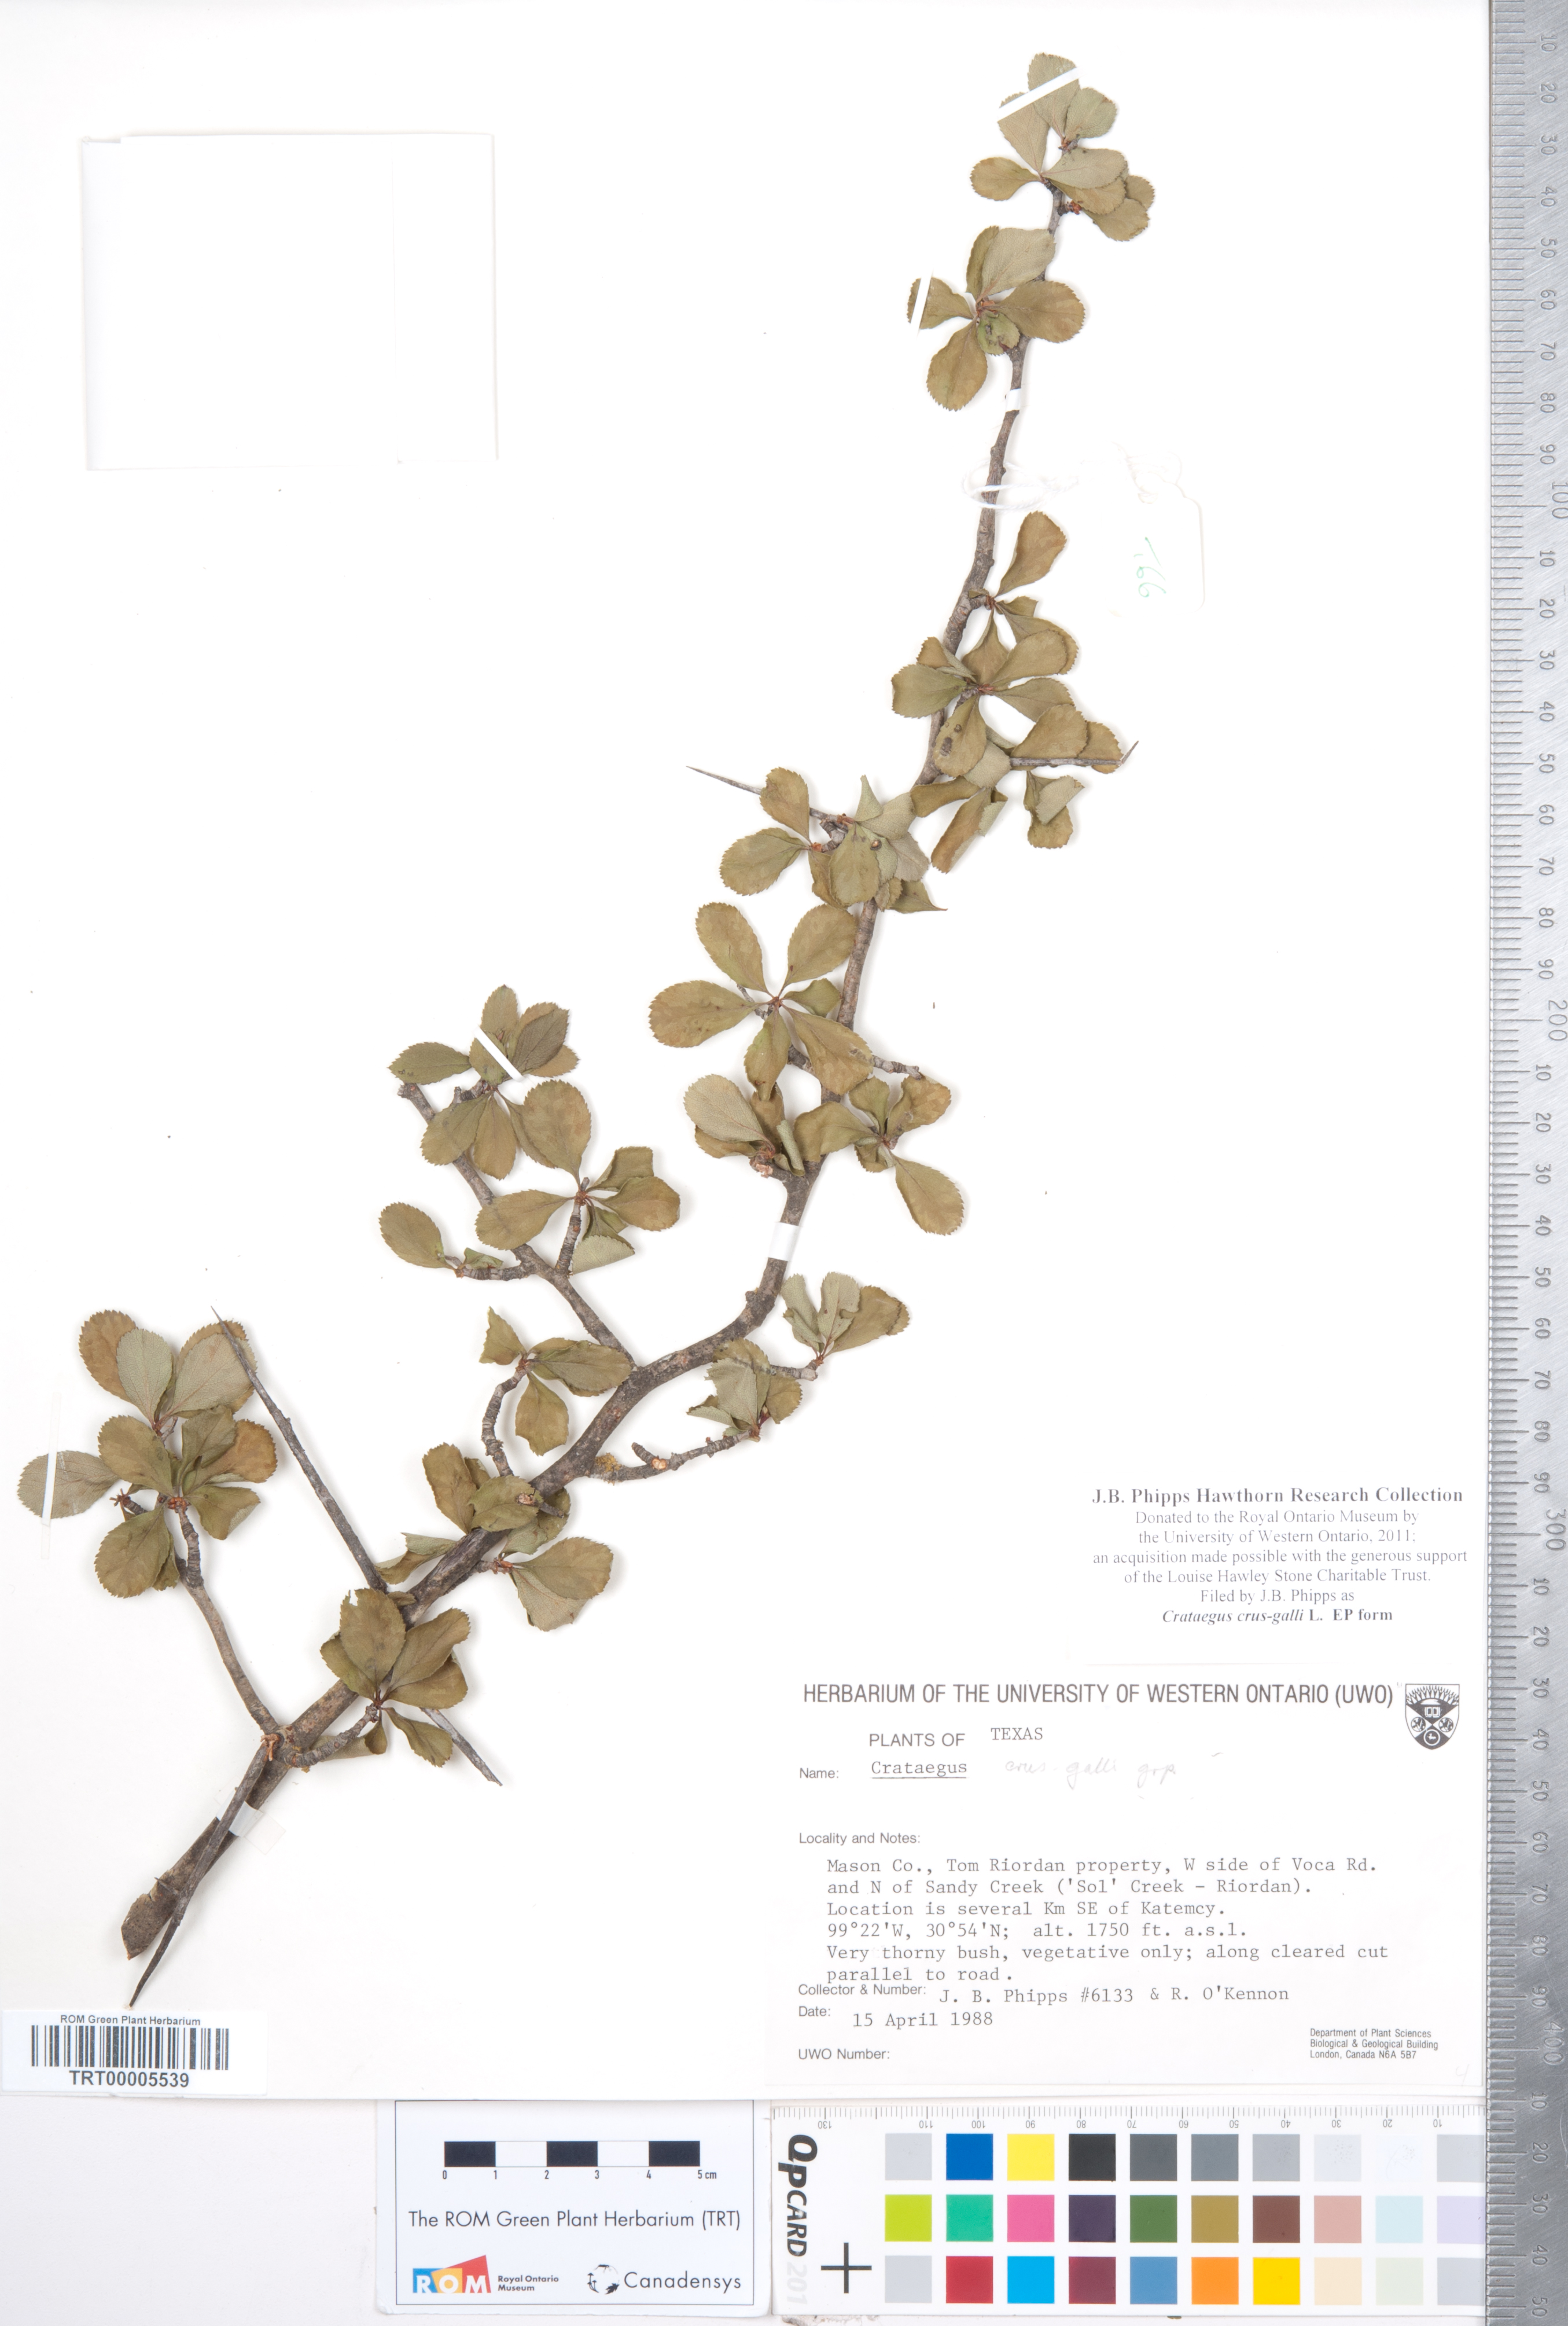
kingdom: Plantae
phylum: Tracheophyta
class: Magnoliopsida
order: Rosales
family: Rosaceae
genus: Crataegus
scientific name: Crataegus crus-galli
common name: Cockspurthorn
